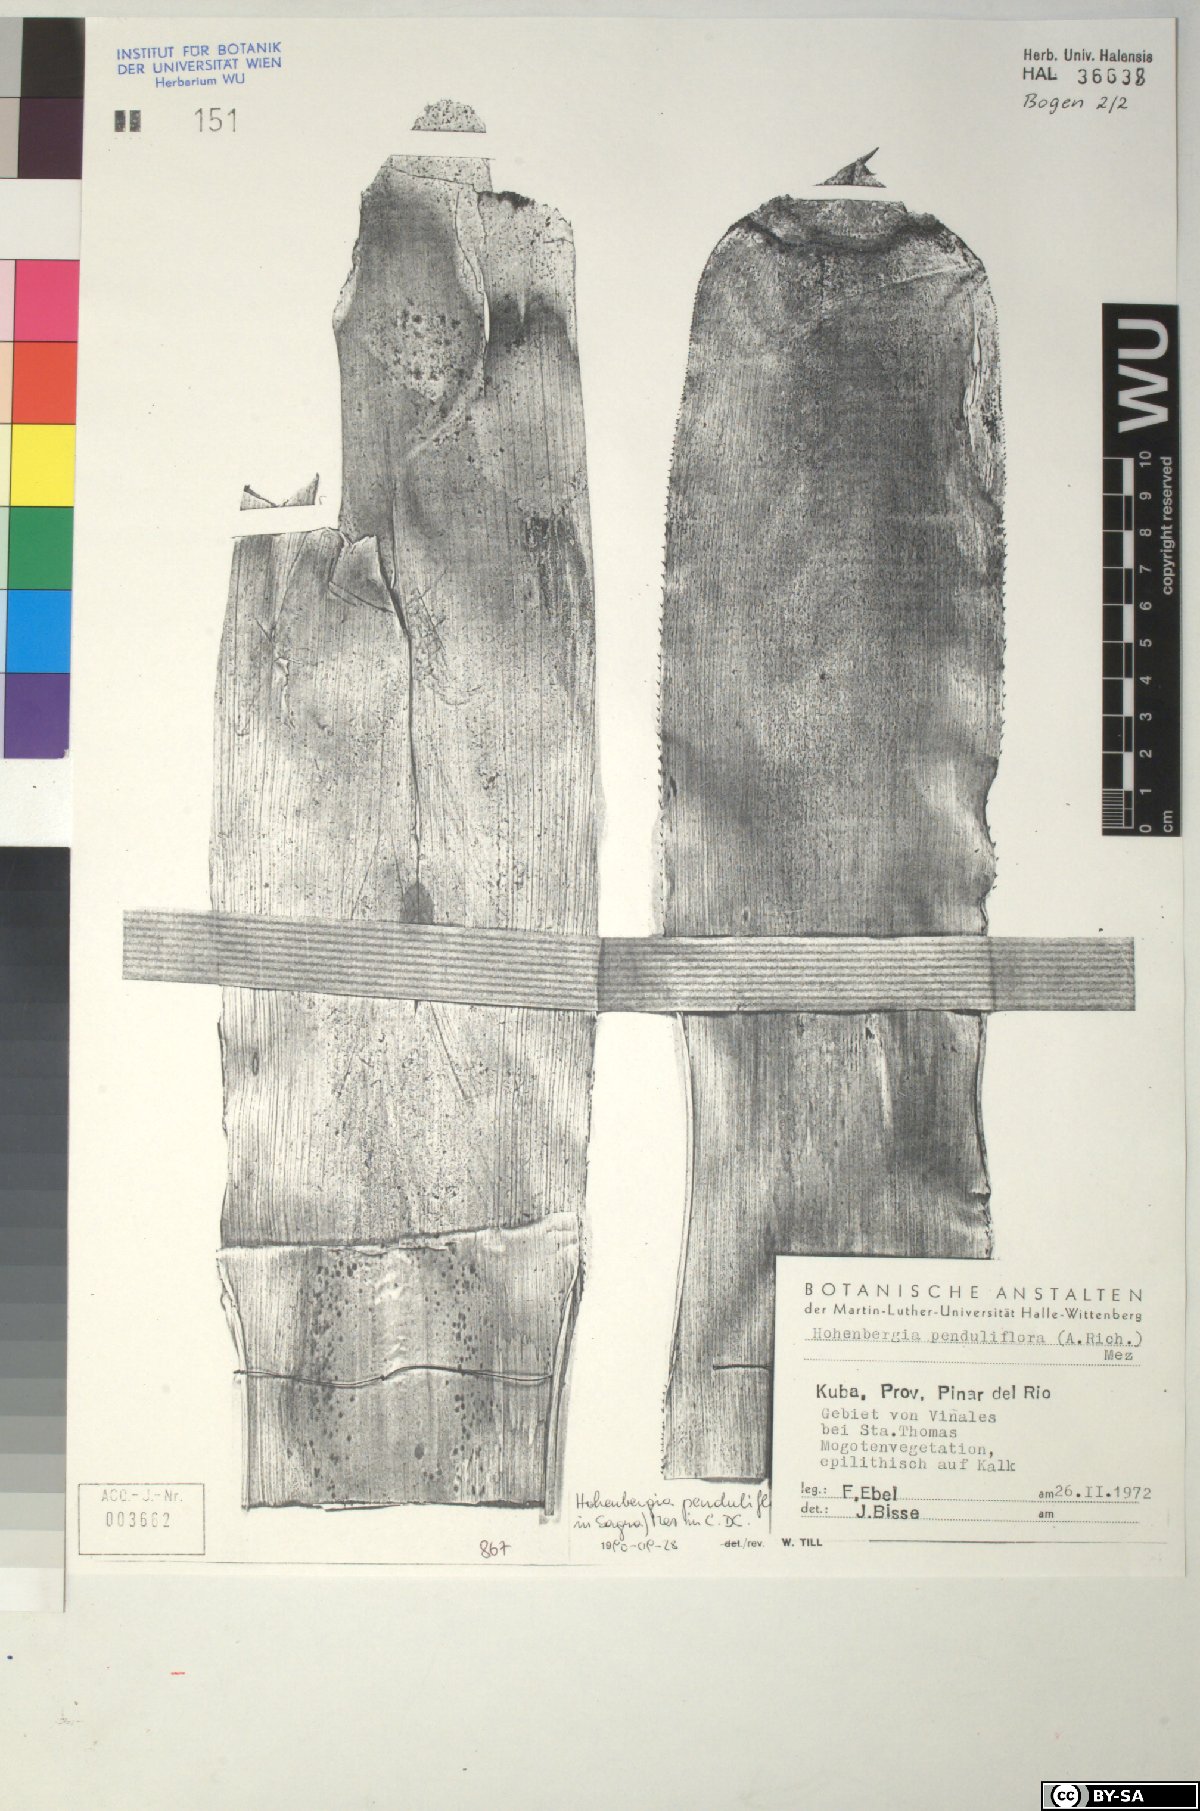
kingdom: Plantae
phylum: Tracheophyta
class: Liliopsida
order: Poales
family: Bromeliaceae
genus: Hohenbergia
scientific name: Hohenbergia
